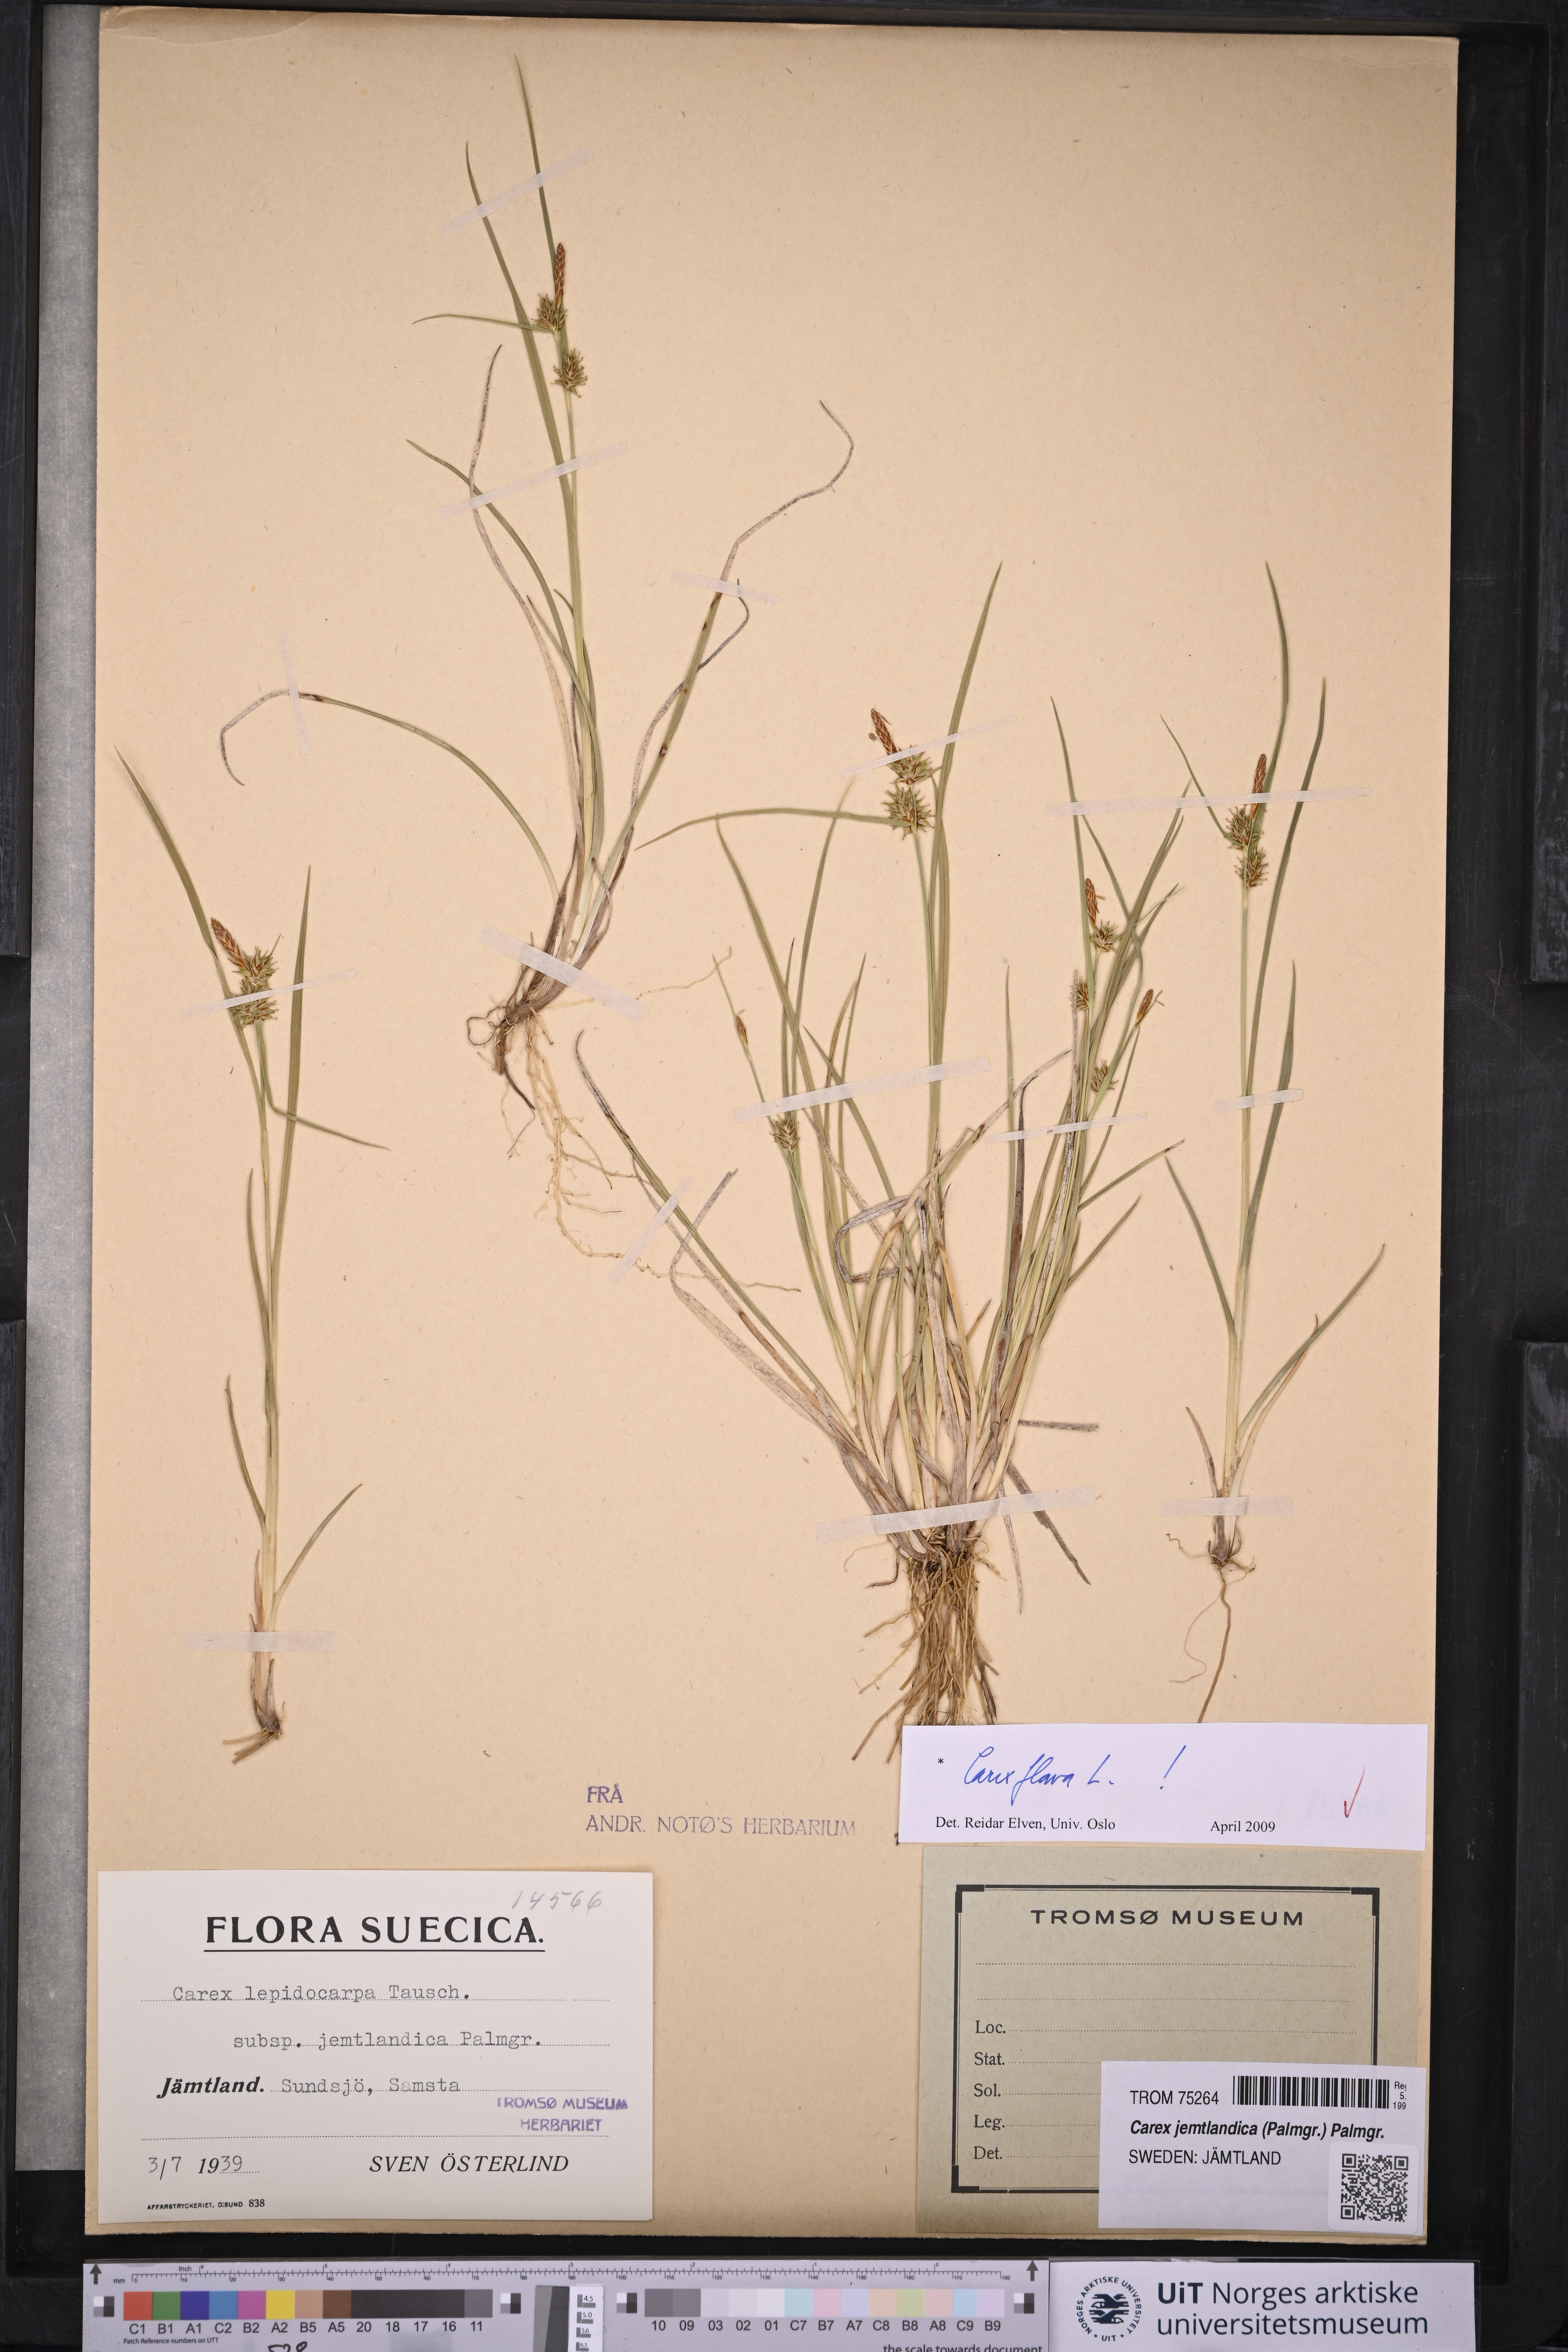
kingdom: Plantae
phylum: Tracheophyta
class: Liliopsida
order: Poales
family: Cyperaceae
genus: Carex
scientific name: Carex flava
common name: Large yellow-sedge
